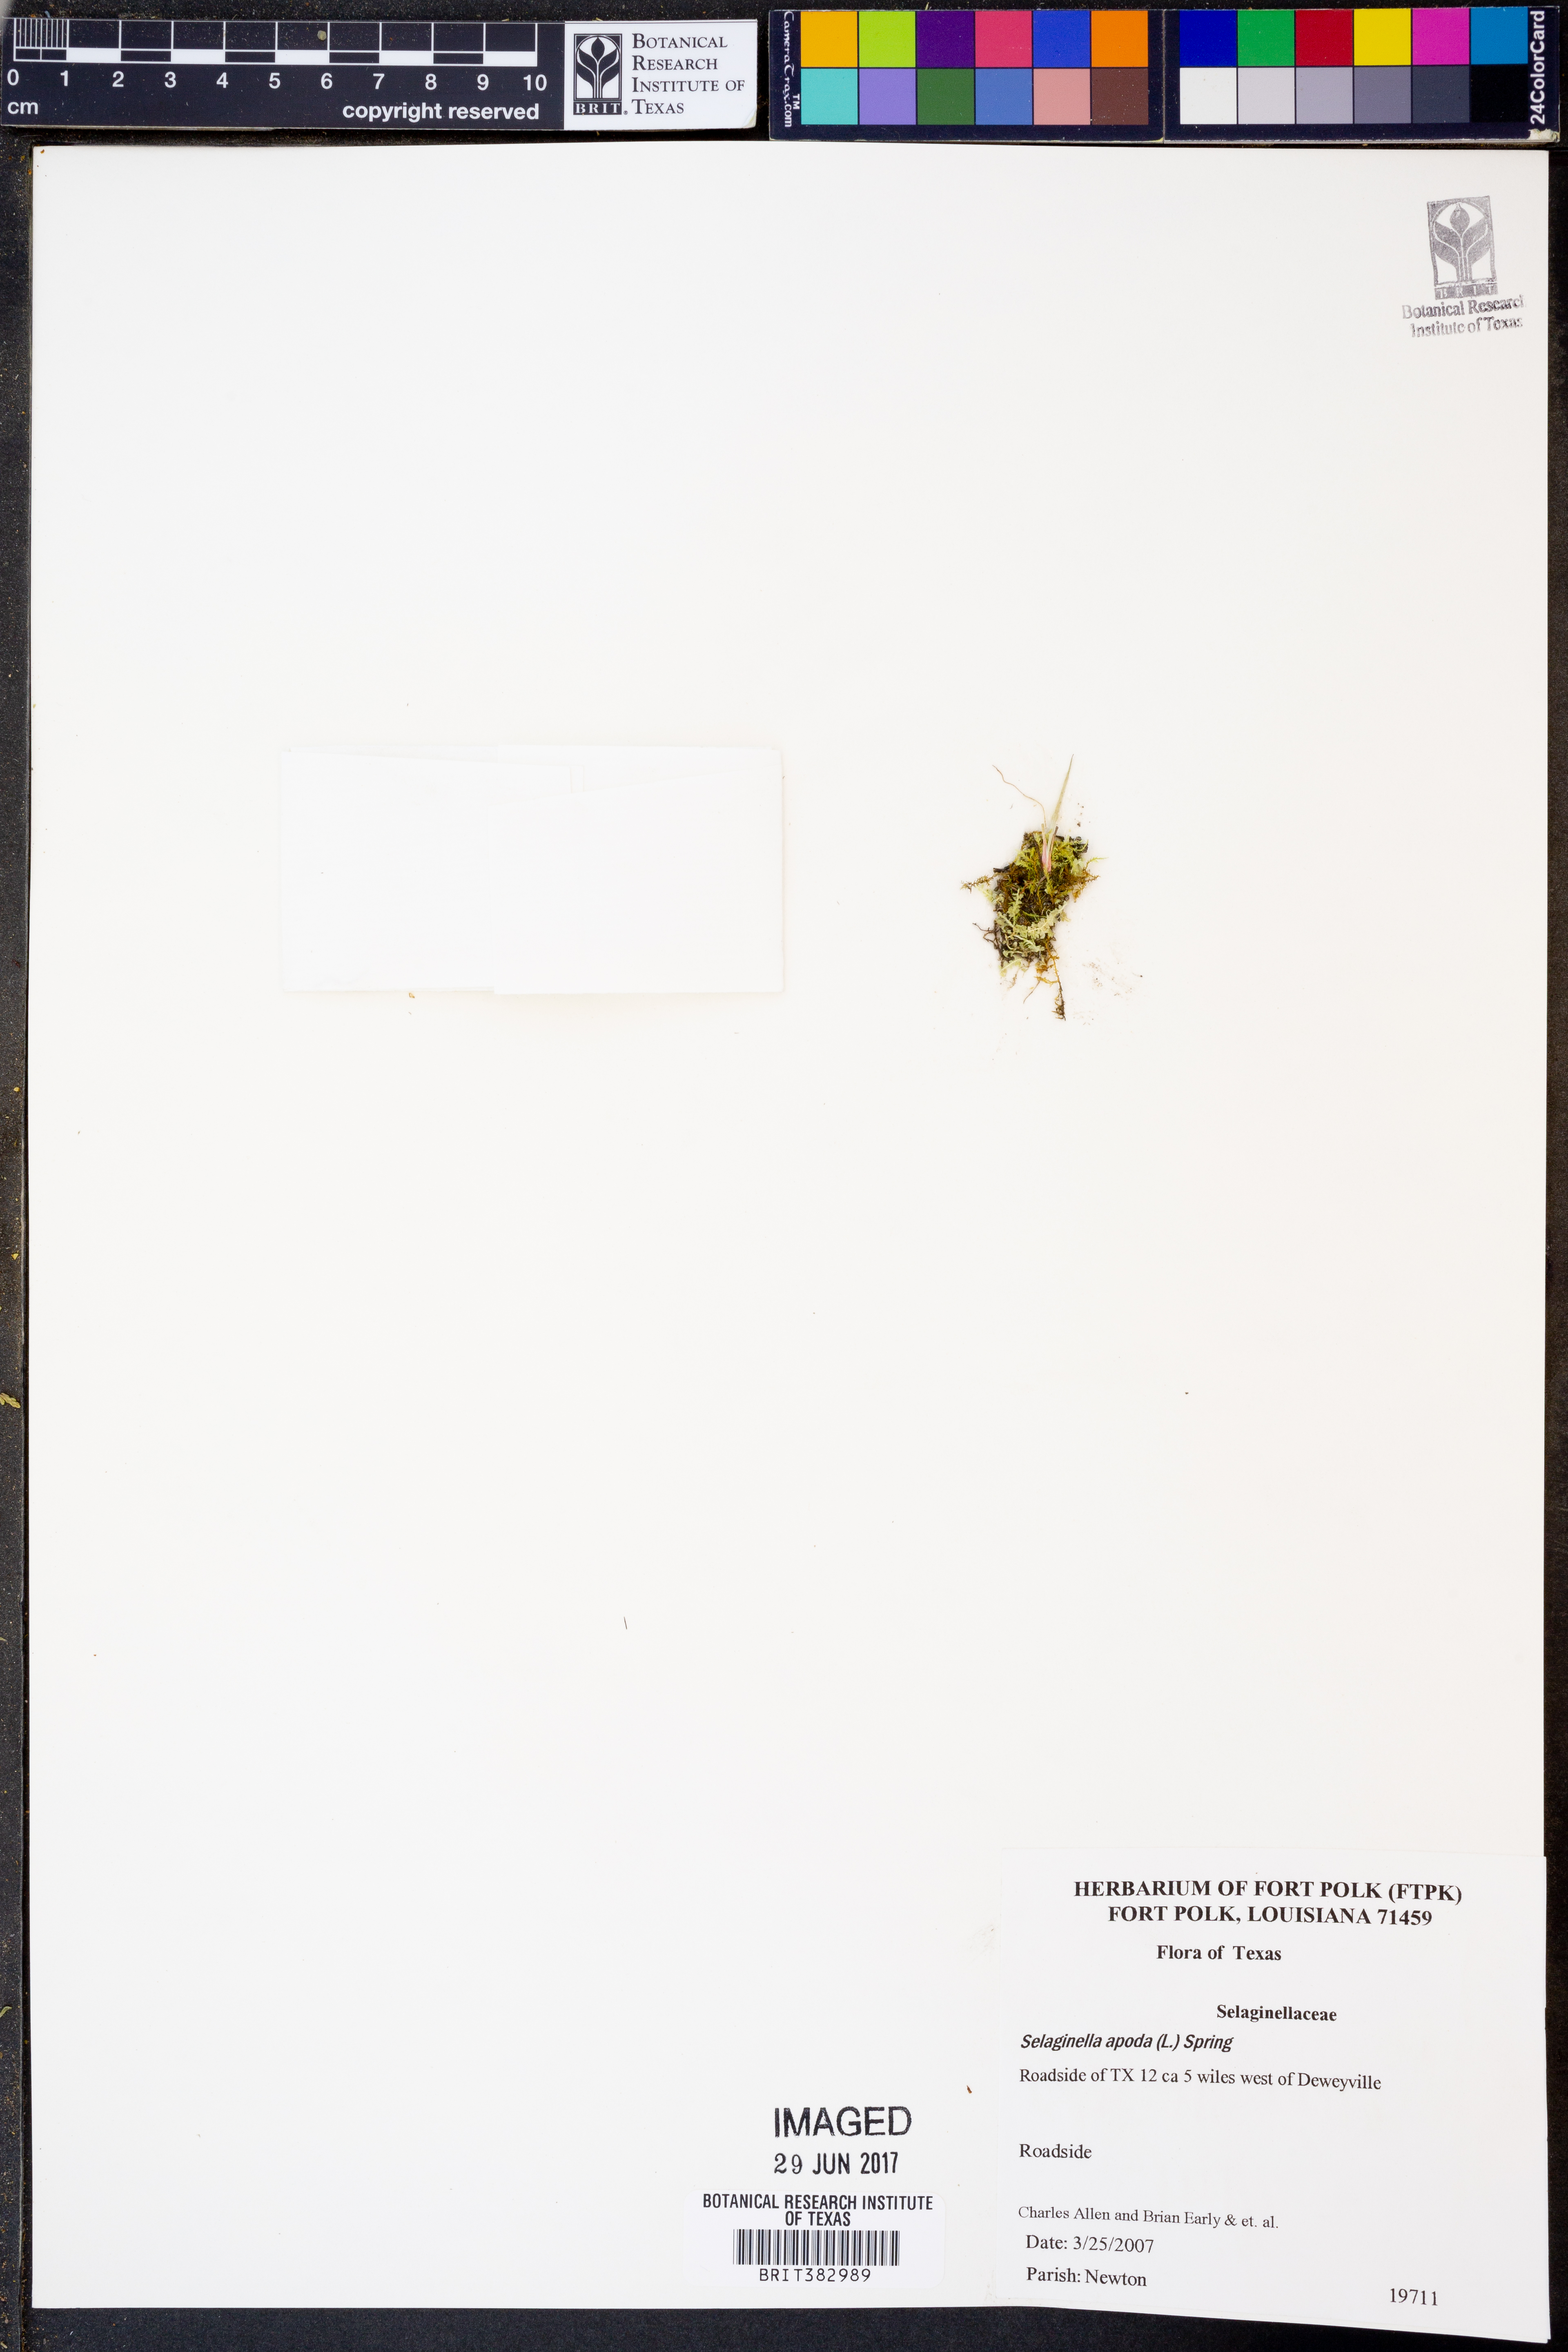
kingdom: Plantae
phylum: Tracheophyta
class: Lycopodiopsida
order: Selaginellales
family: Selaginellaceae
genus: Selaginella
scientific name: Selaginella apoda
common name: Creeping spikemoss
